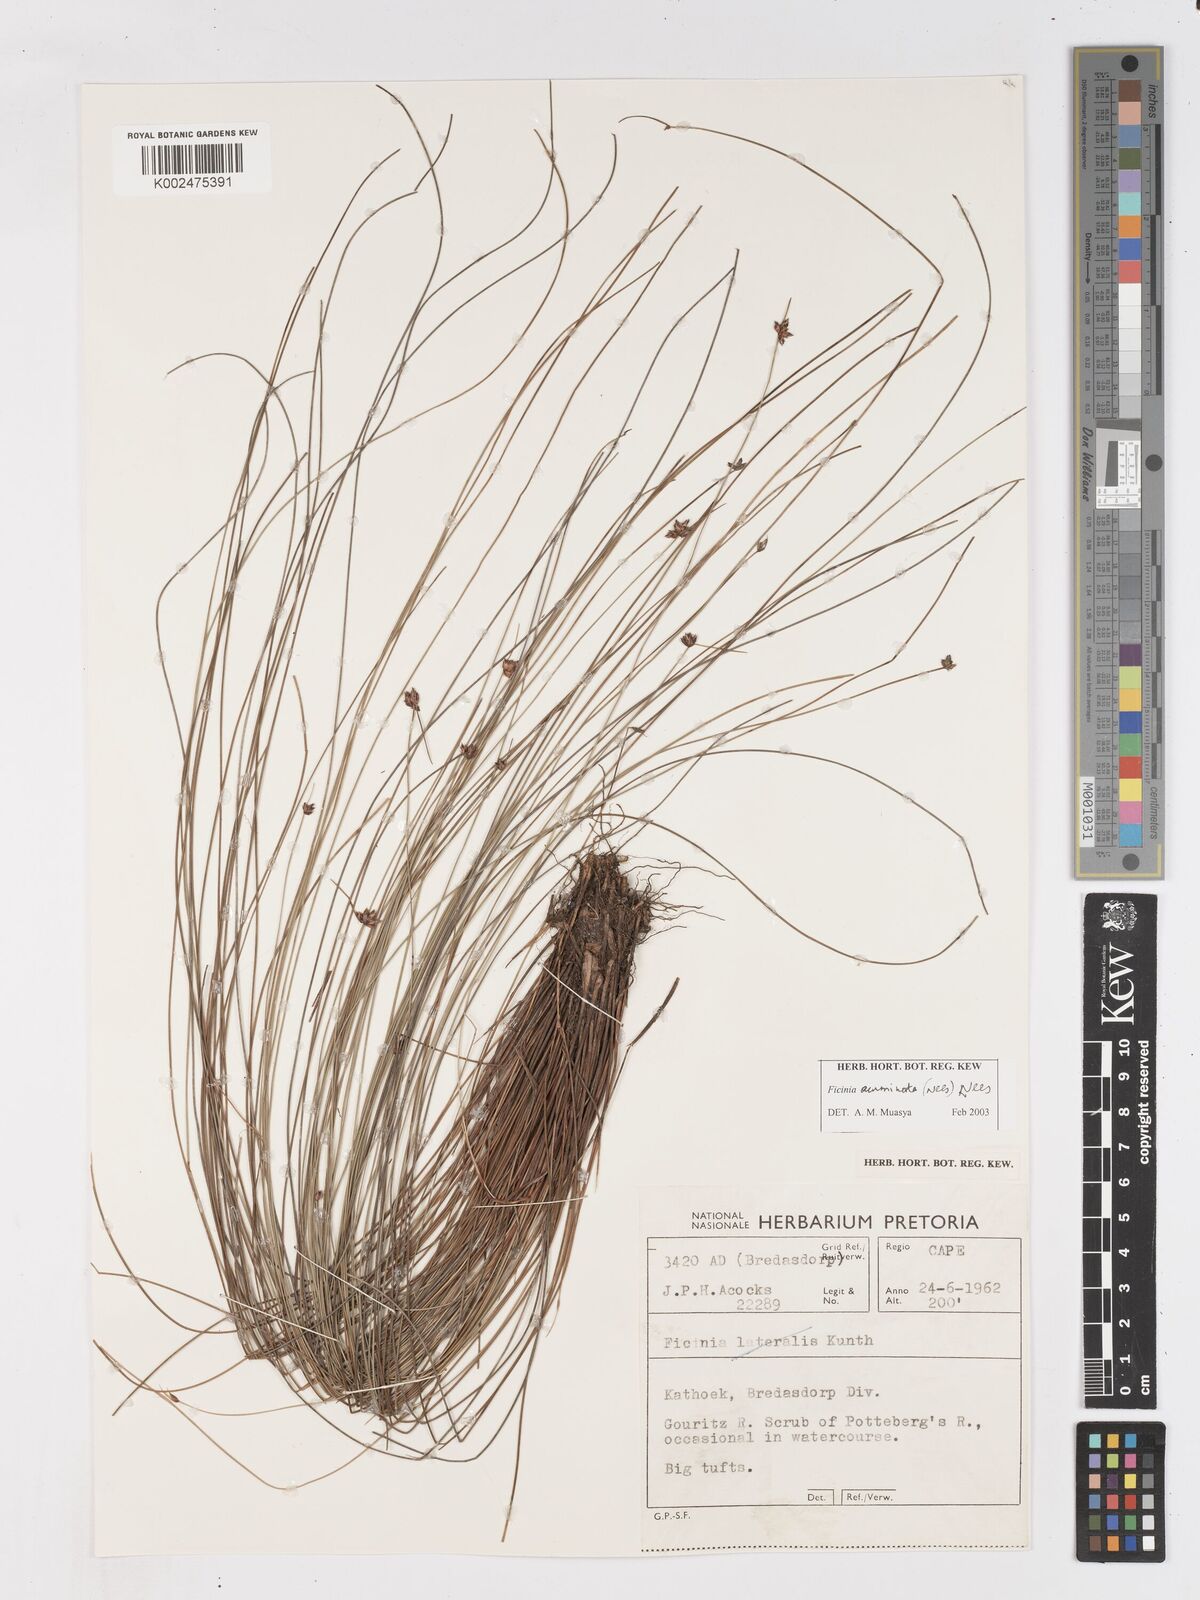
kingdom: Plantae
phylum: Tracheophyta
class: Liliopsida
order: Poales
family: Cyperaceae
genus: Ficinia
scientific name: Ficinia acuminata
